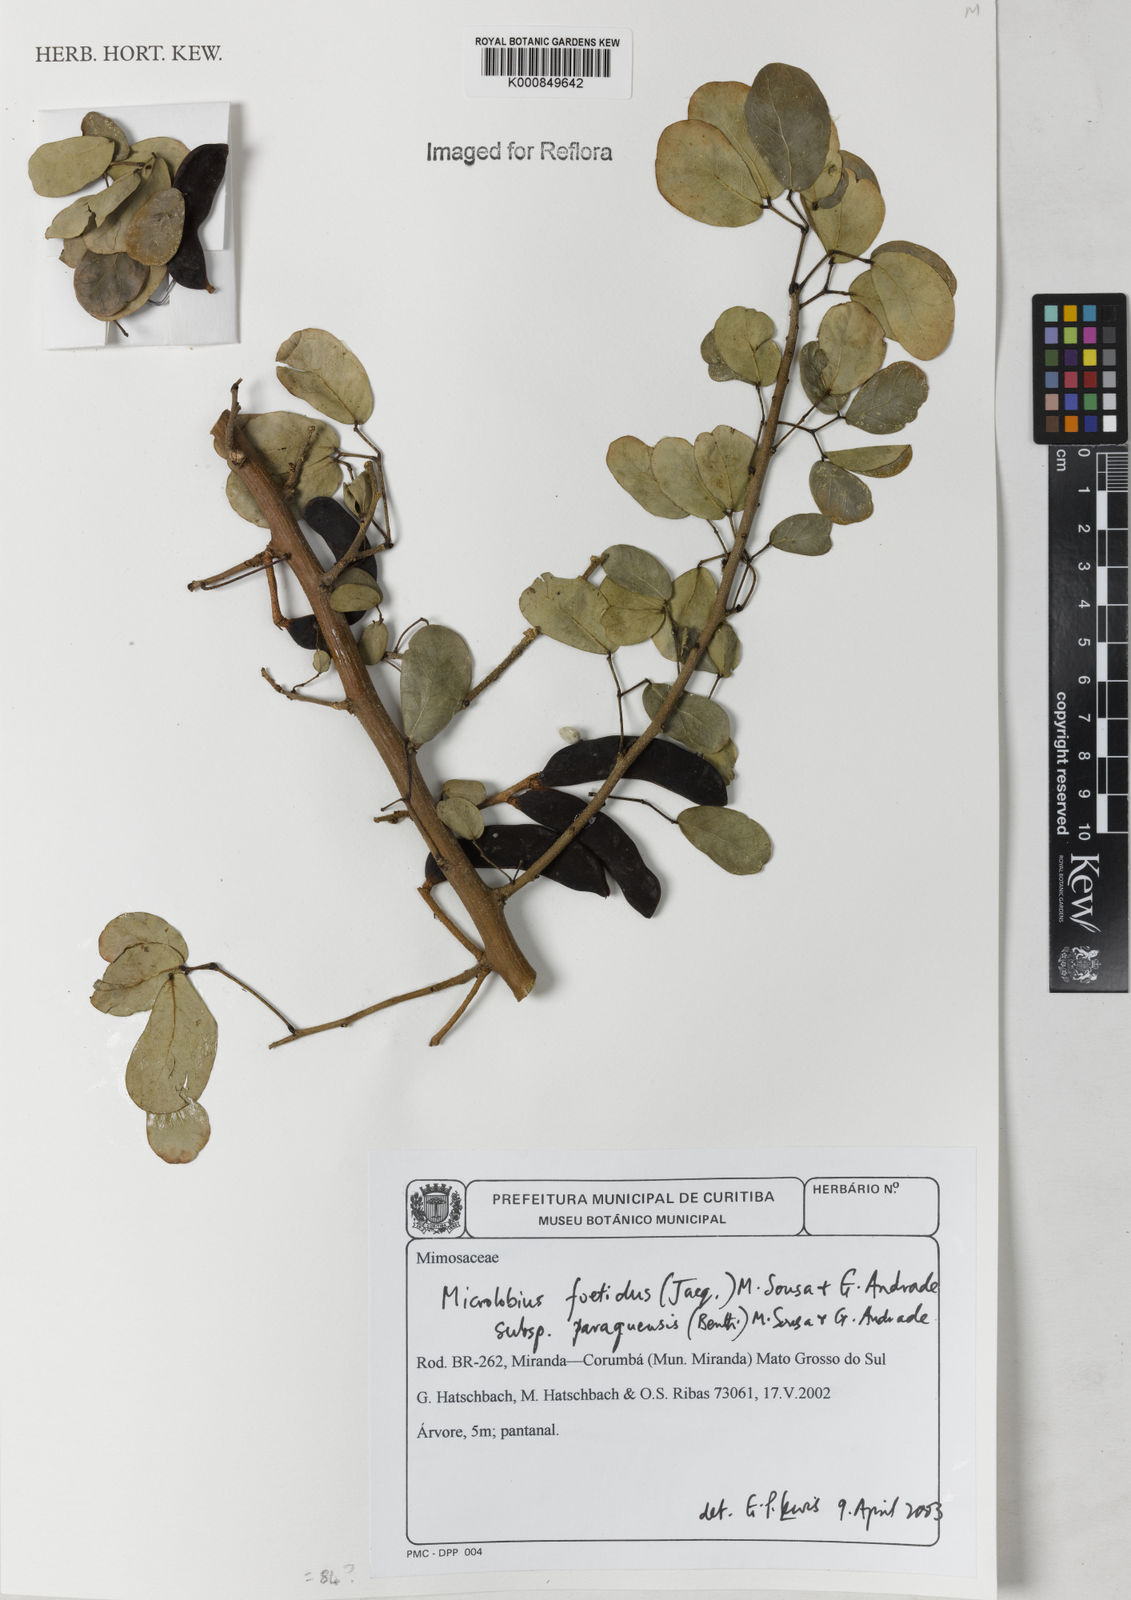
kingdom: Plantae
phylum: Tracheophyta
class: Magnoliopsida
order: Fabales
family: Fabaceae
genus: Microlobius
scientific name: Microlobius foetidus
